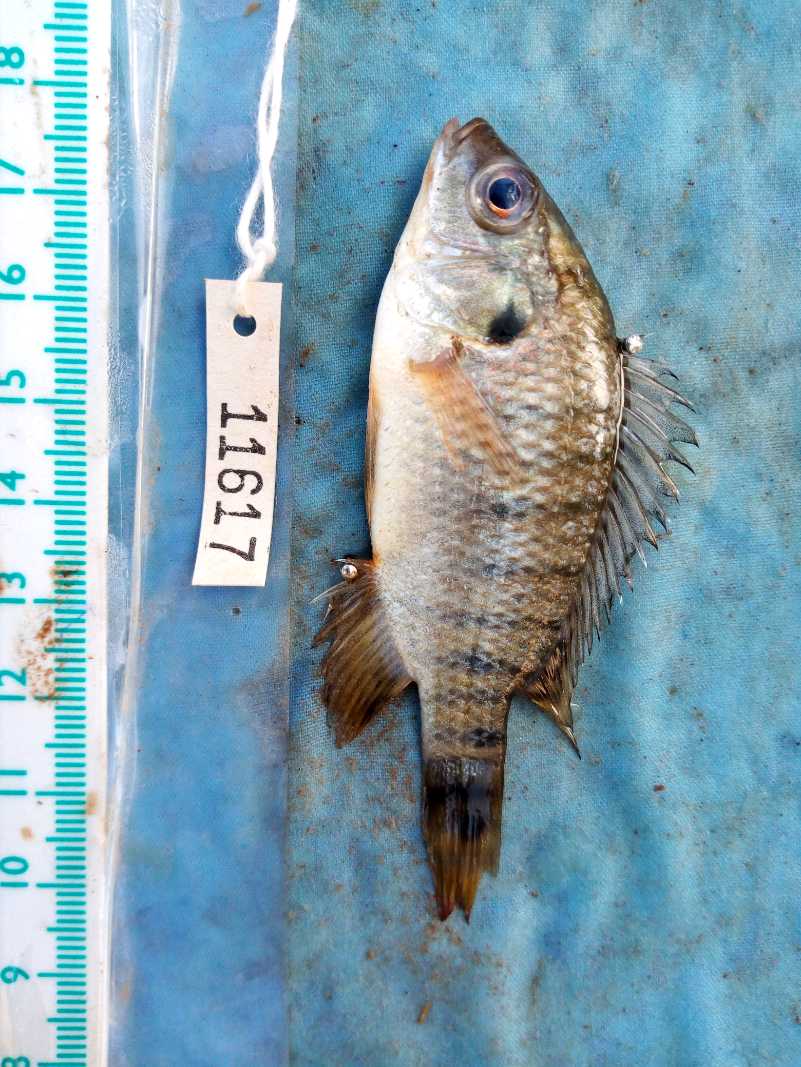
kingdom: Animalia
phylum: Chordata
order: Perciformes
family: Cichlidae
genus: Oreochromis
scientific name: Oreochromis spilurus
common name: Sabaki tilapia
